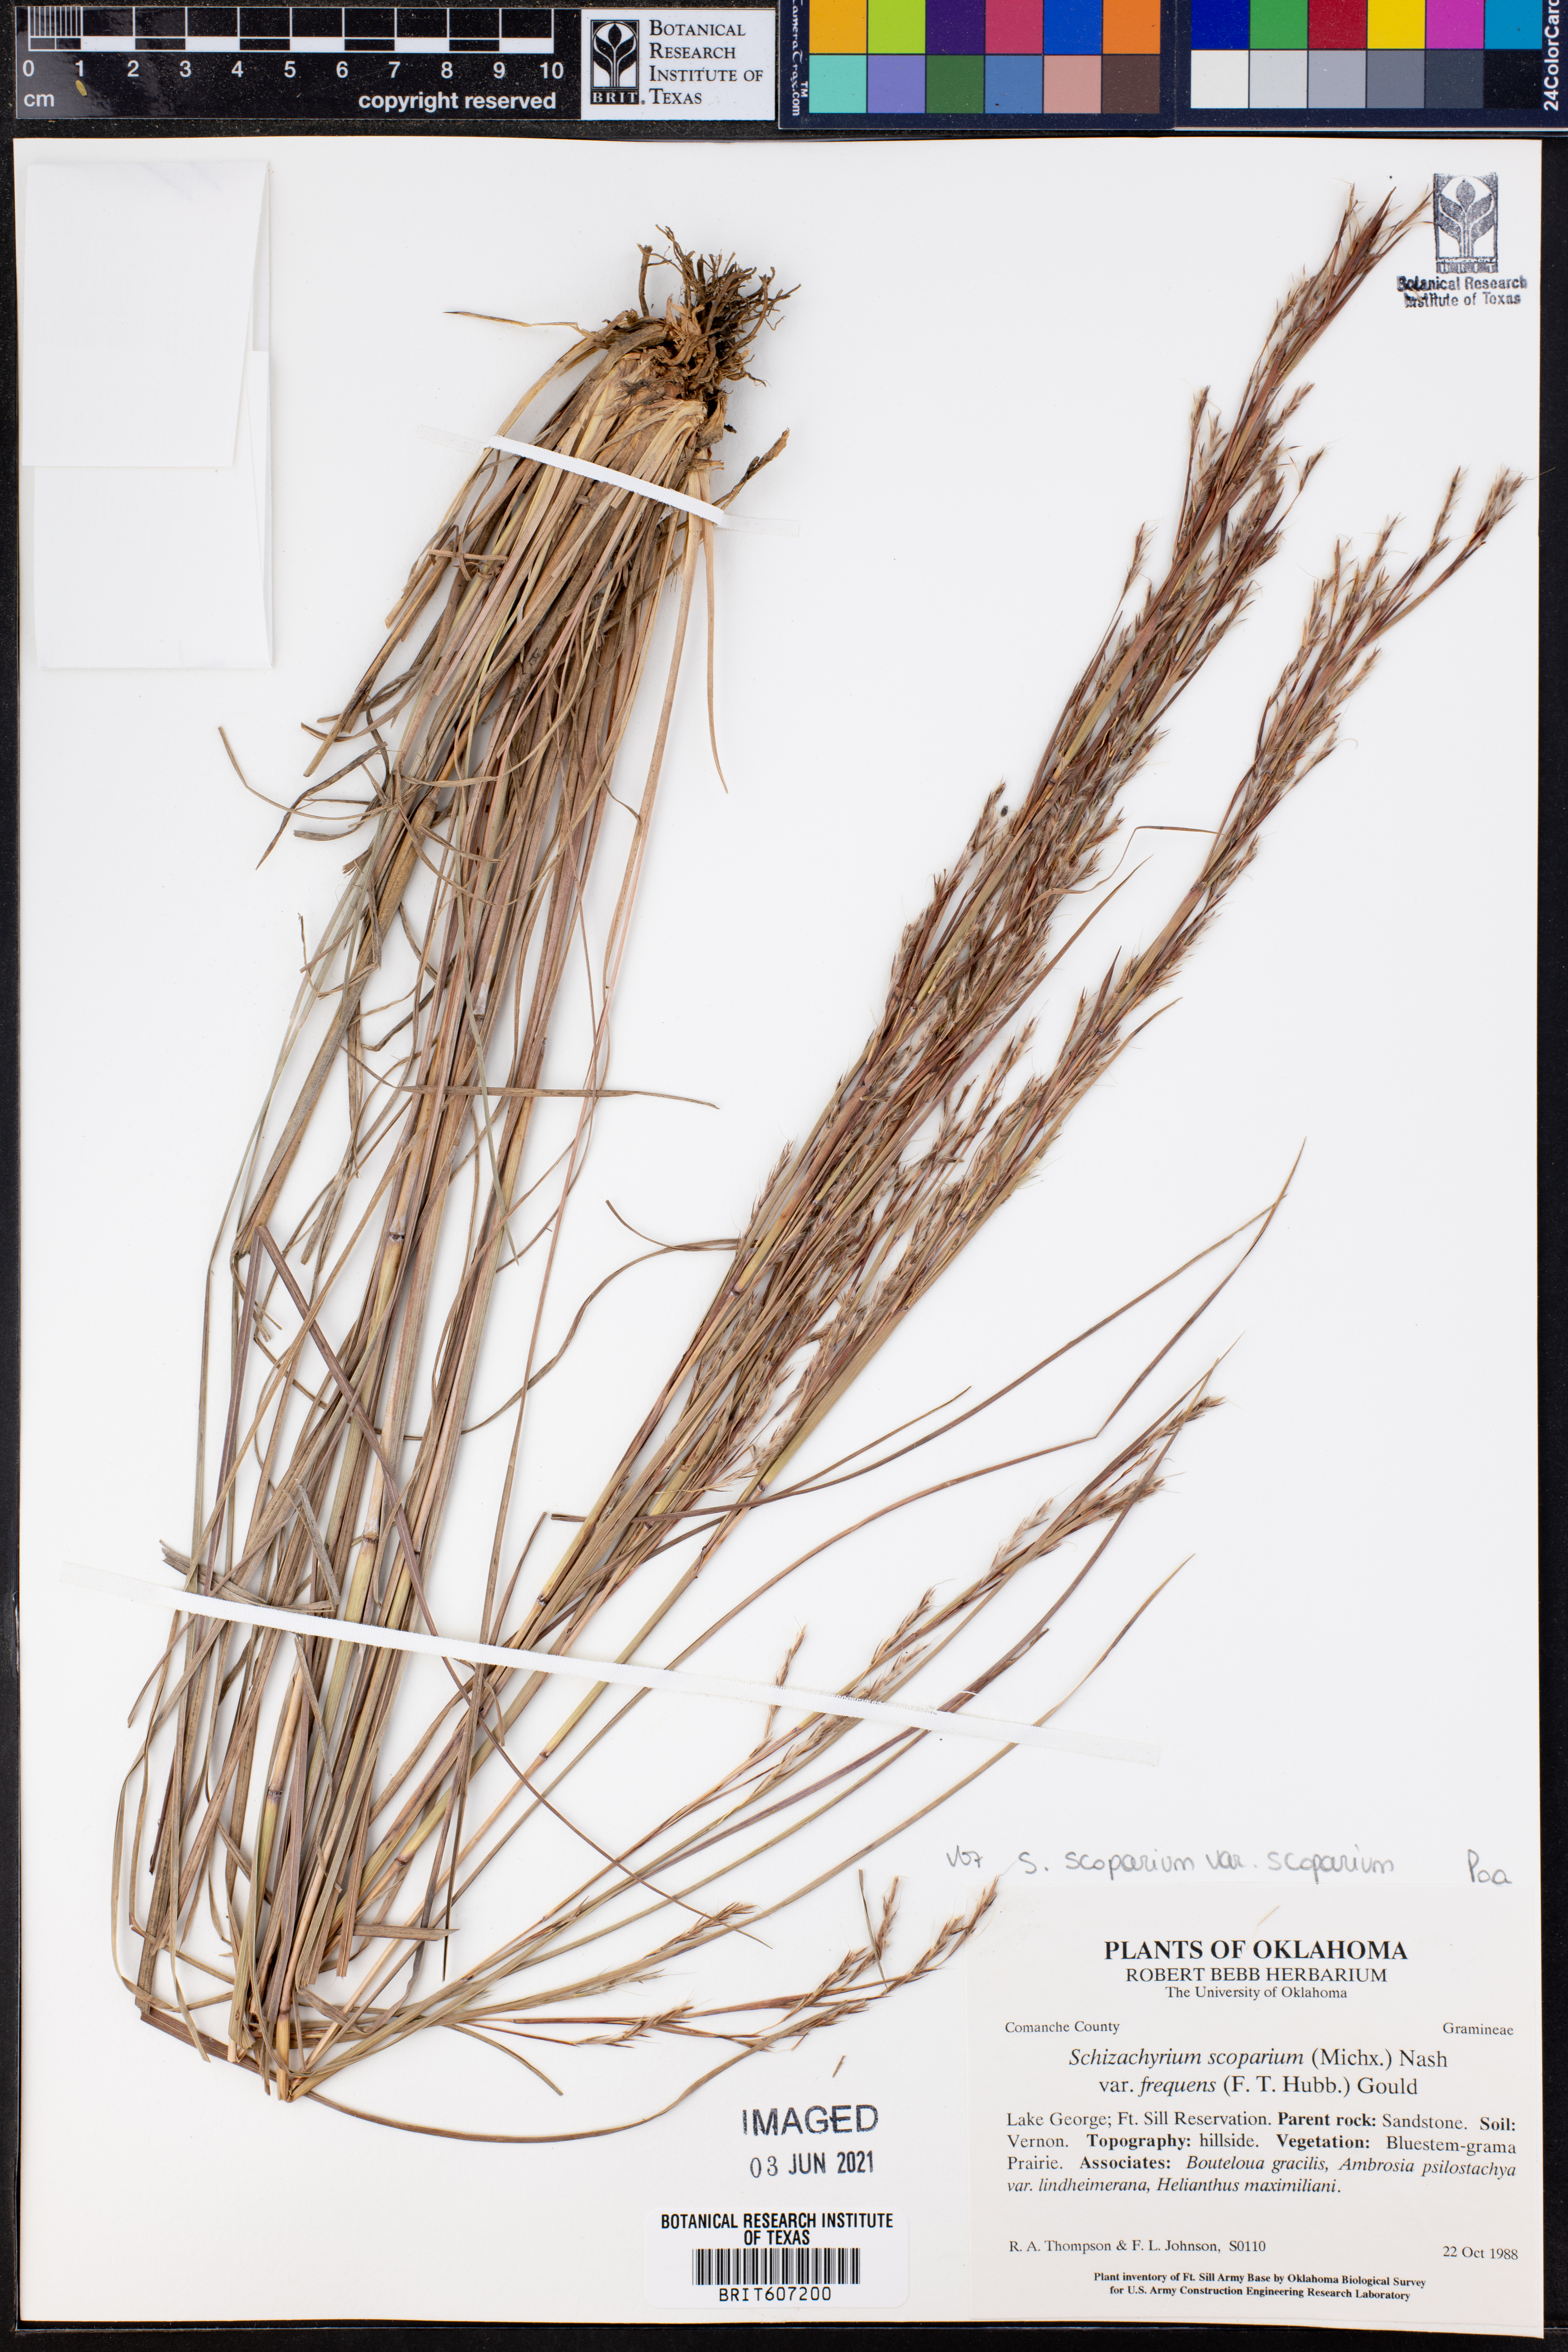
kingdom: Plantae
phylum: Tracheophyta
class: Liliopsida
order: Poales
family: Poaceae
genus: Schizachyrium
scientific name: Schizachyrium scoparium
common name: Little bluestem
